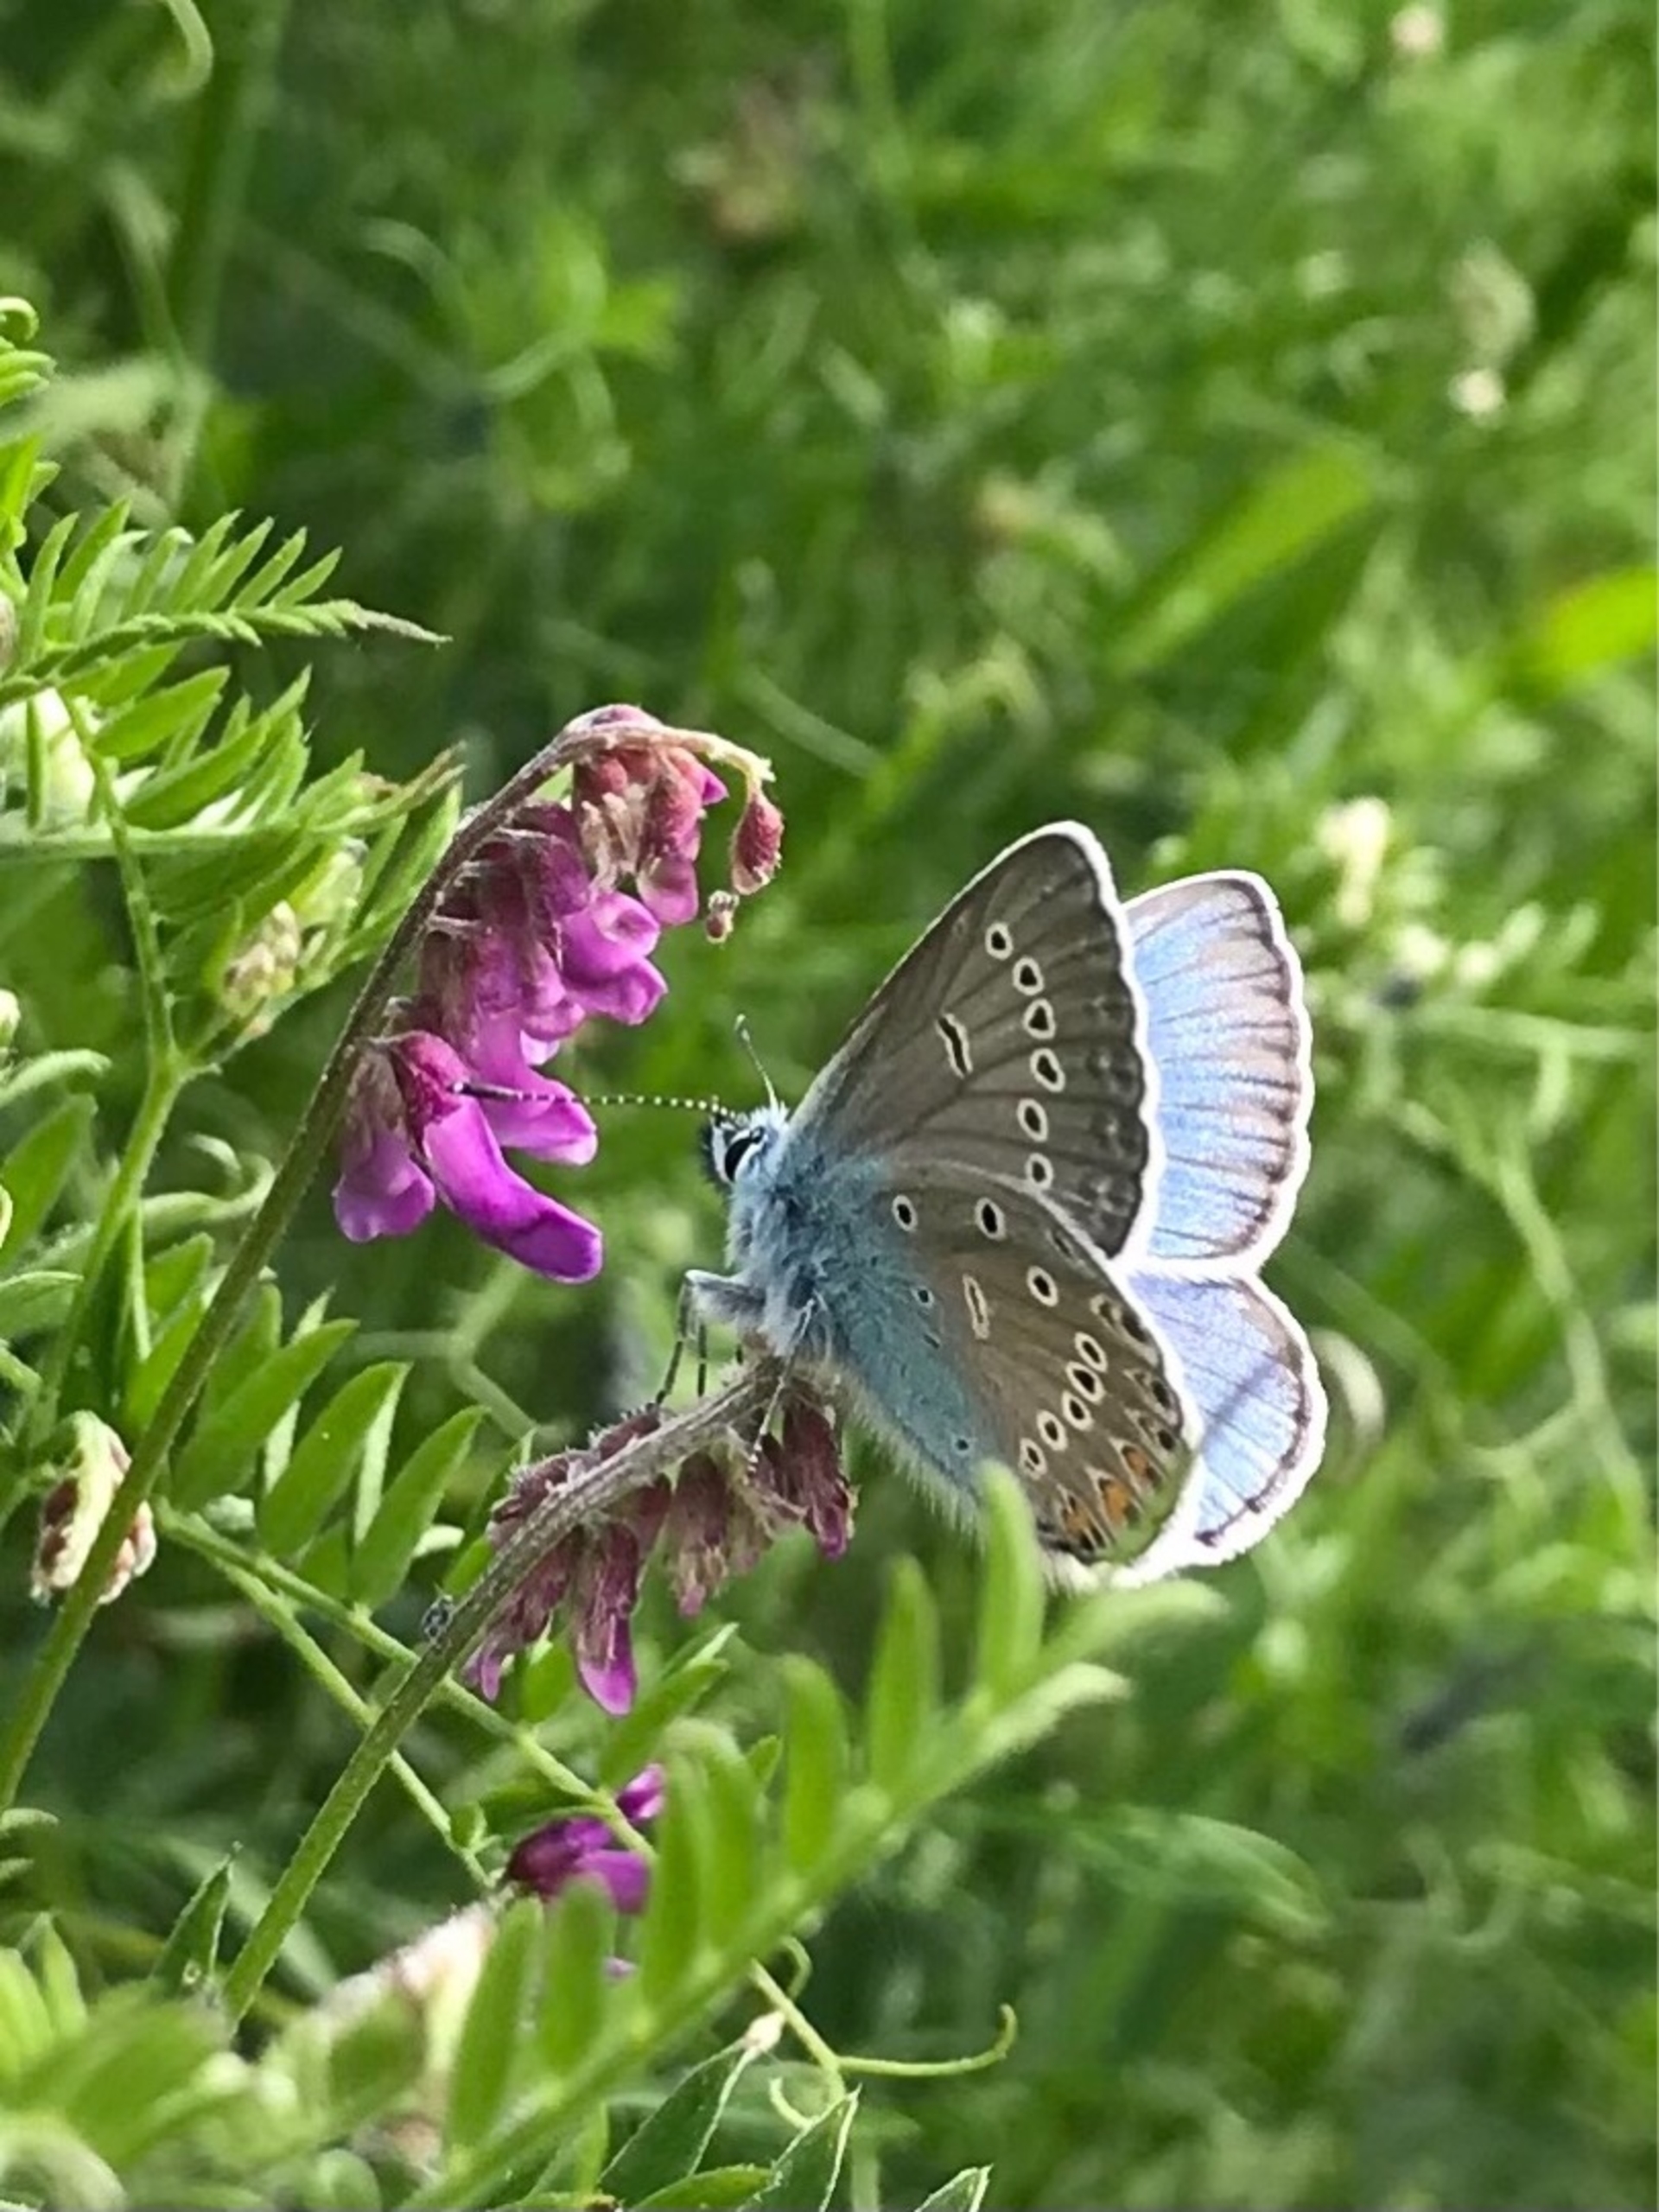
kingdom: Animalia
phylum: Arthropoda
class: Insecta
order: Lepidoptera
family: Lycaenidae
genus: Plebejus
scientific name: Plebejus amanda
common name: Isblåfugl
